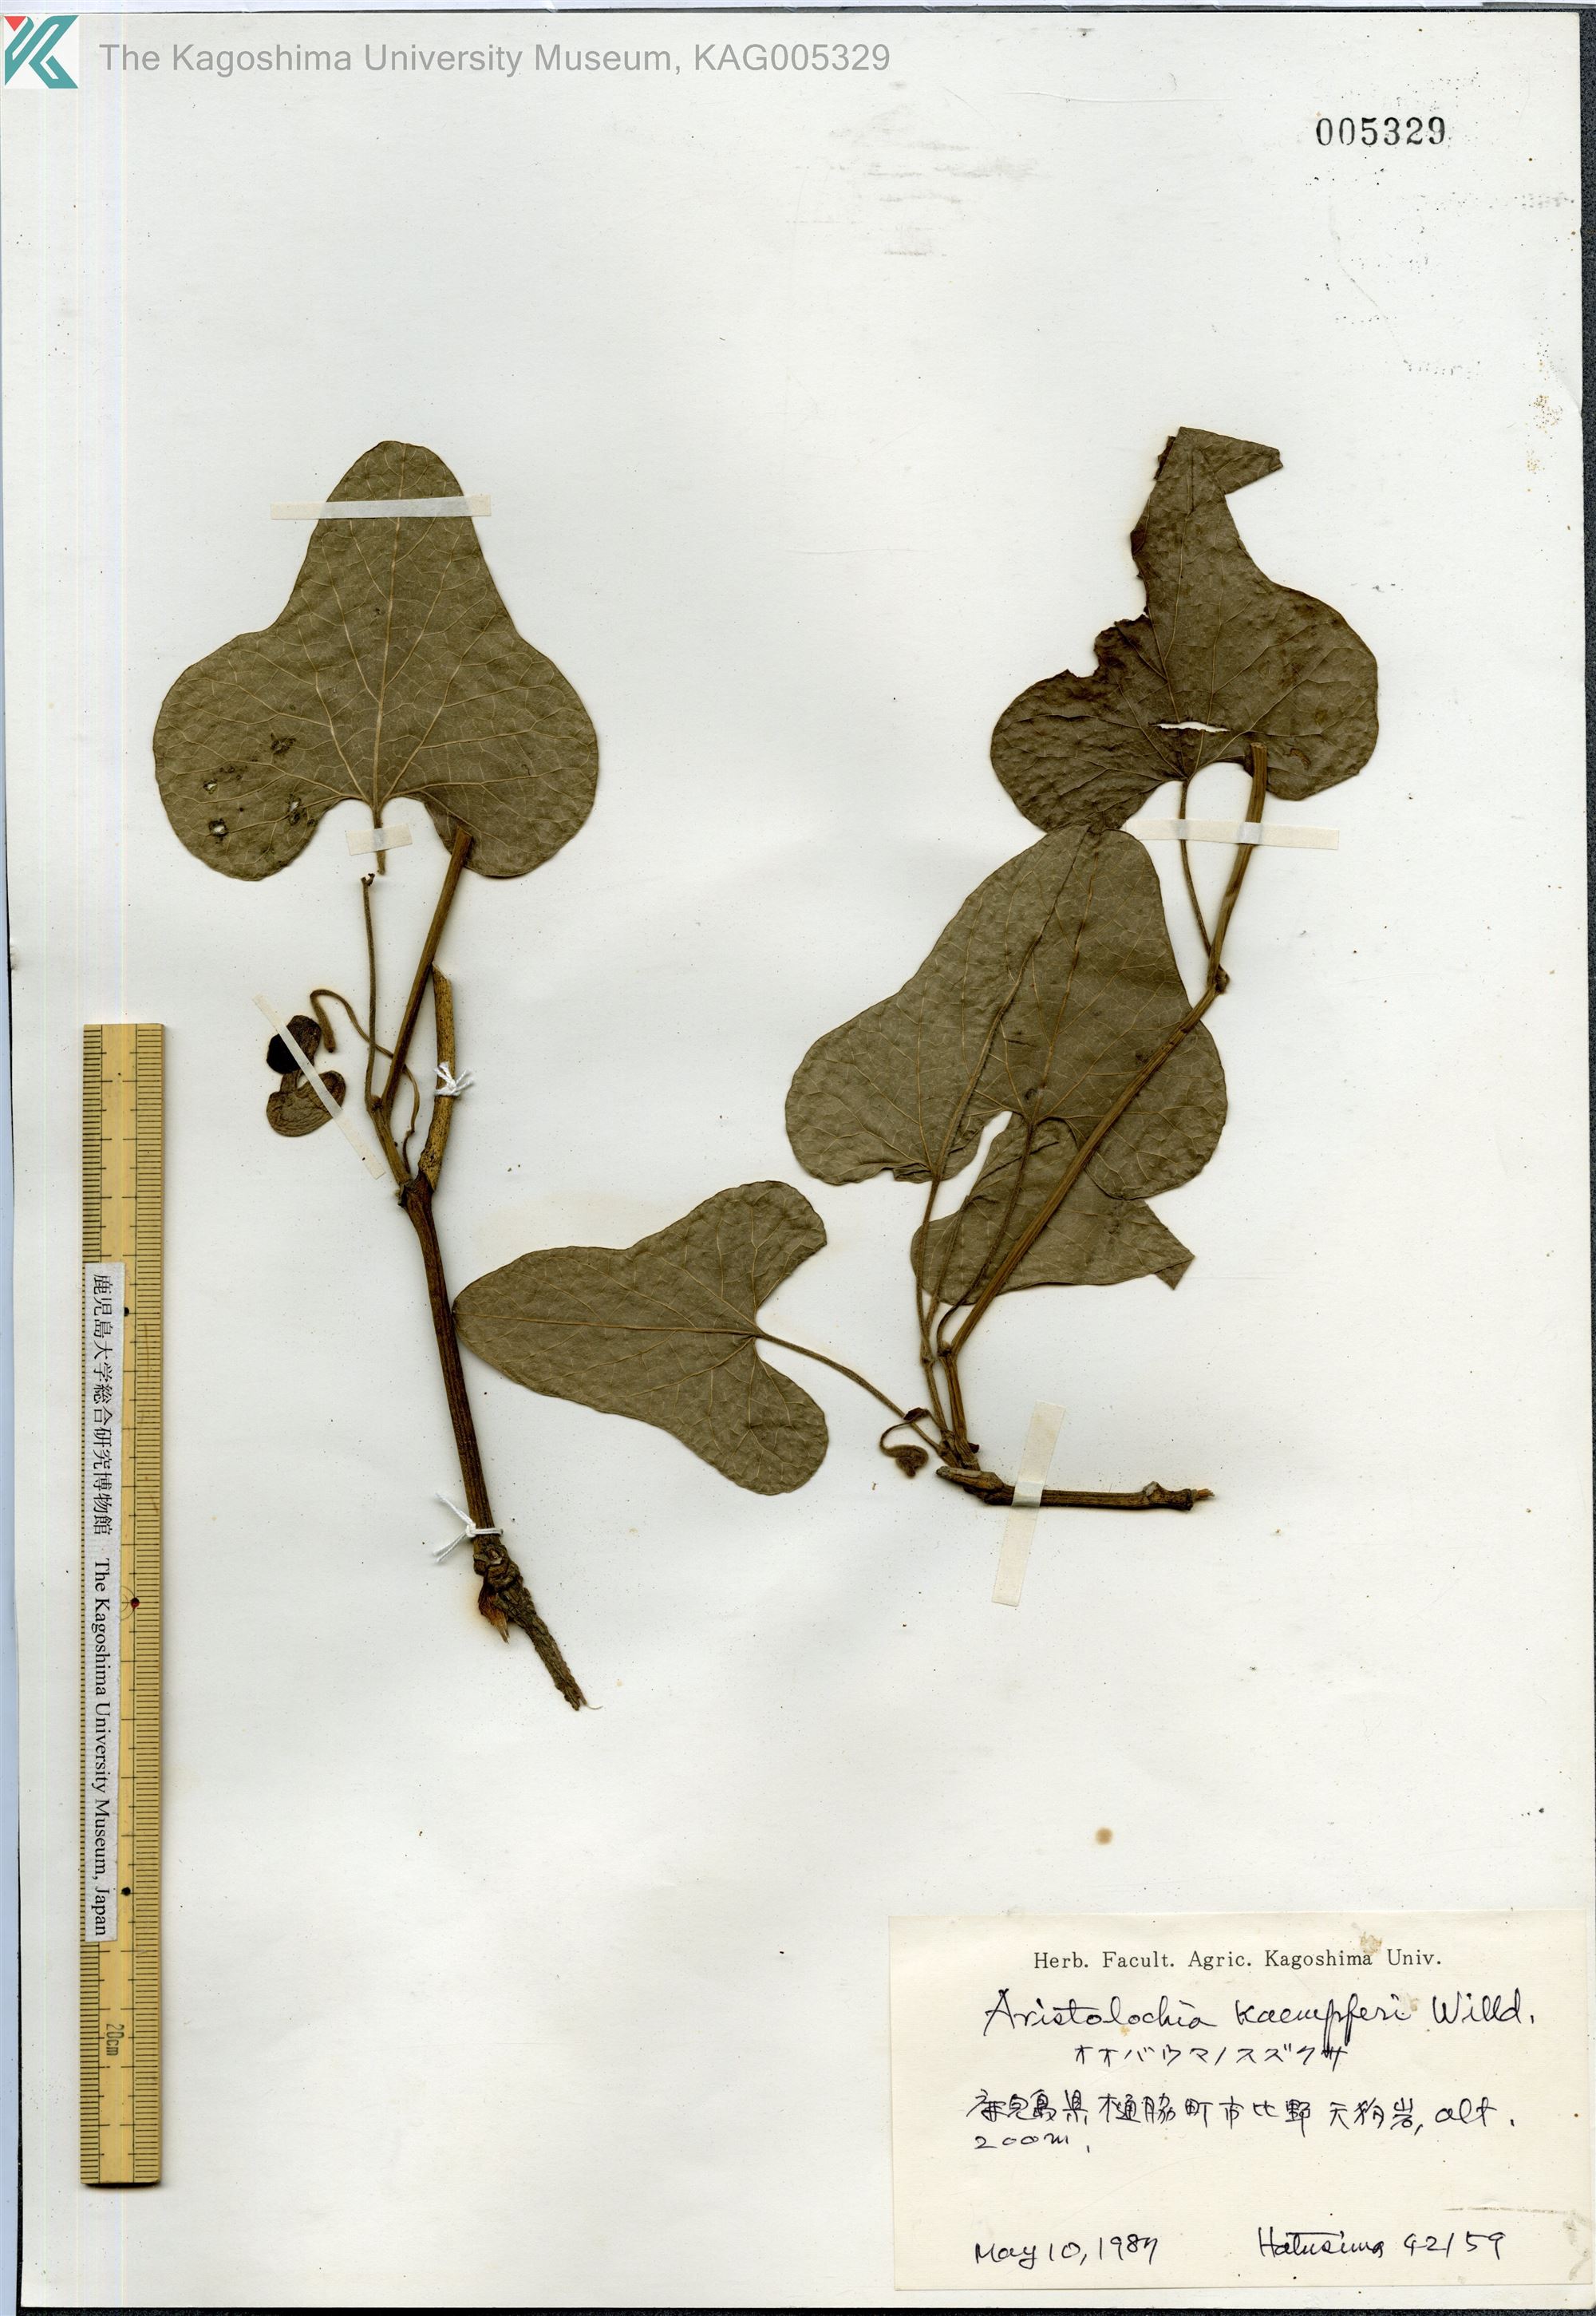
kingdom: Plantae
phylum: Tracheophyta
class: Magnoliopsida
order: Piperales
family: Aristolochiaceae
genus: Isotrema
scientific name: Isotrema kaempferi
